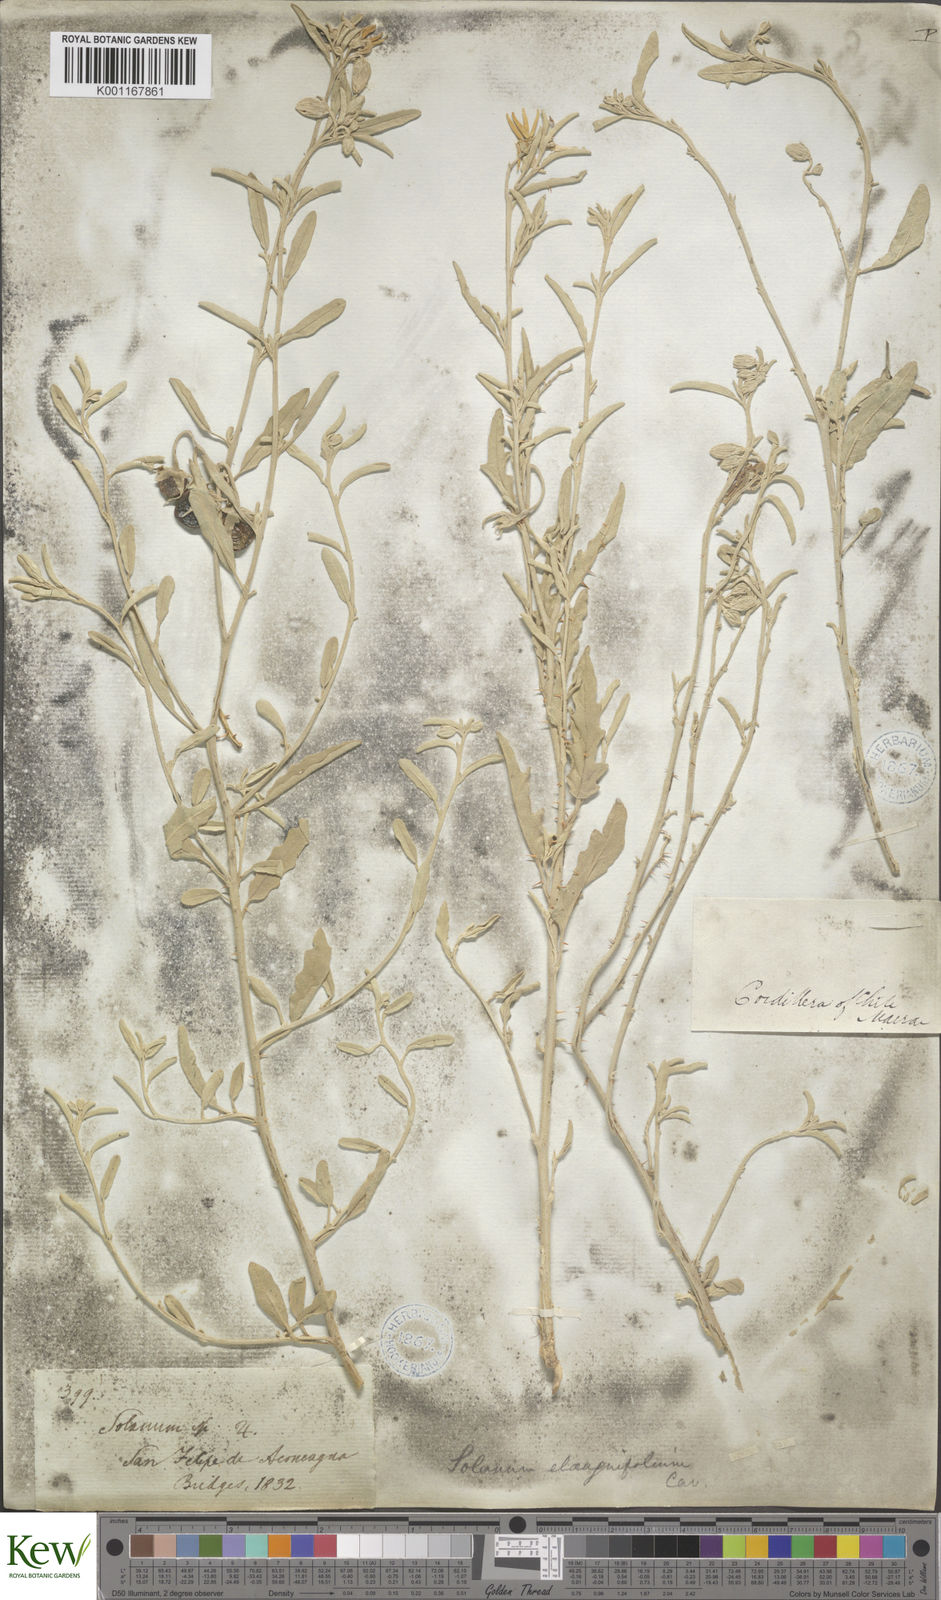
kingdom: Plantae
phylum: Tracheophyta
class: Magnoliopsida
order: Solanales
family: Solanaceae
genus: Solanum
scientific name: Solanum elaeagnifolium
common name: Silverleaf nightshade
